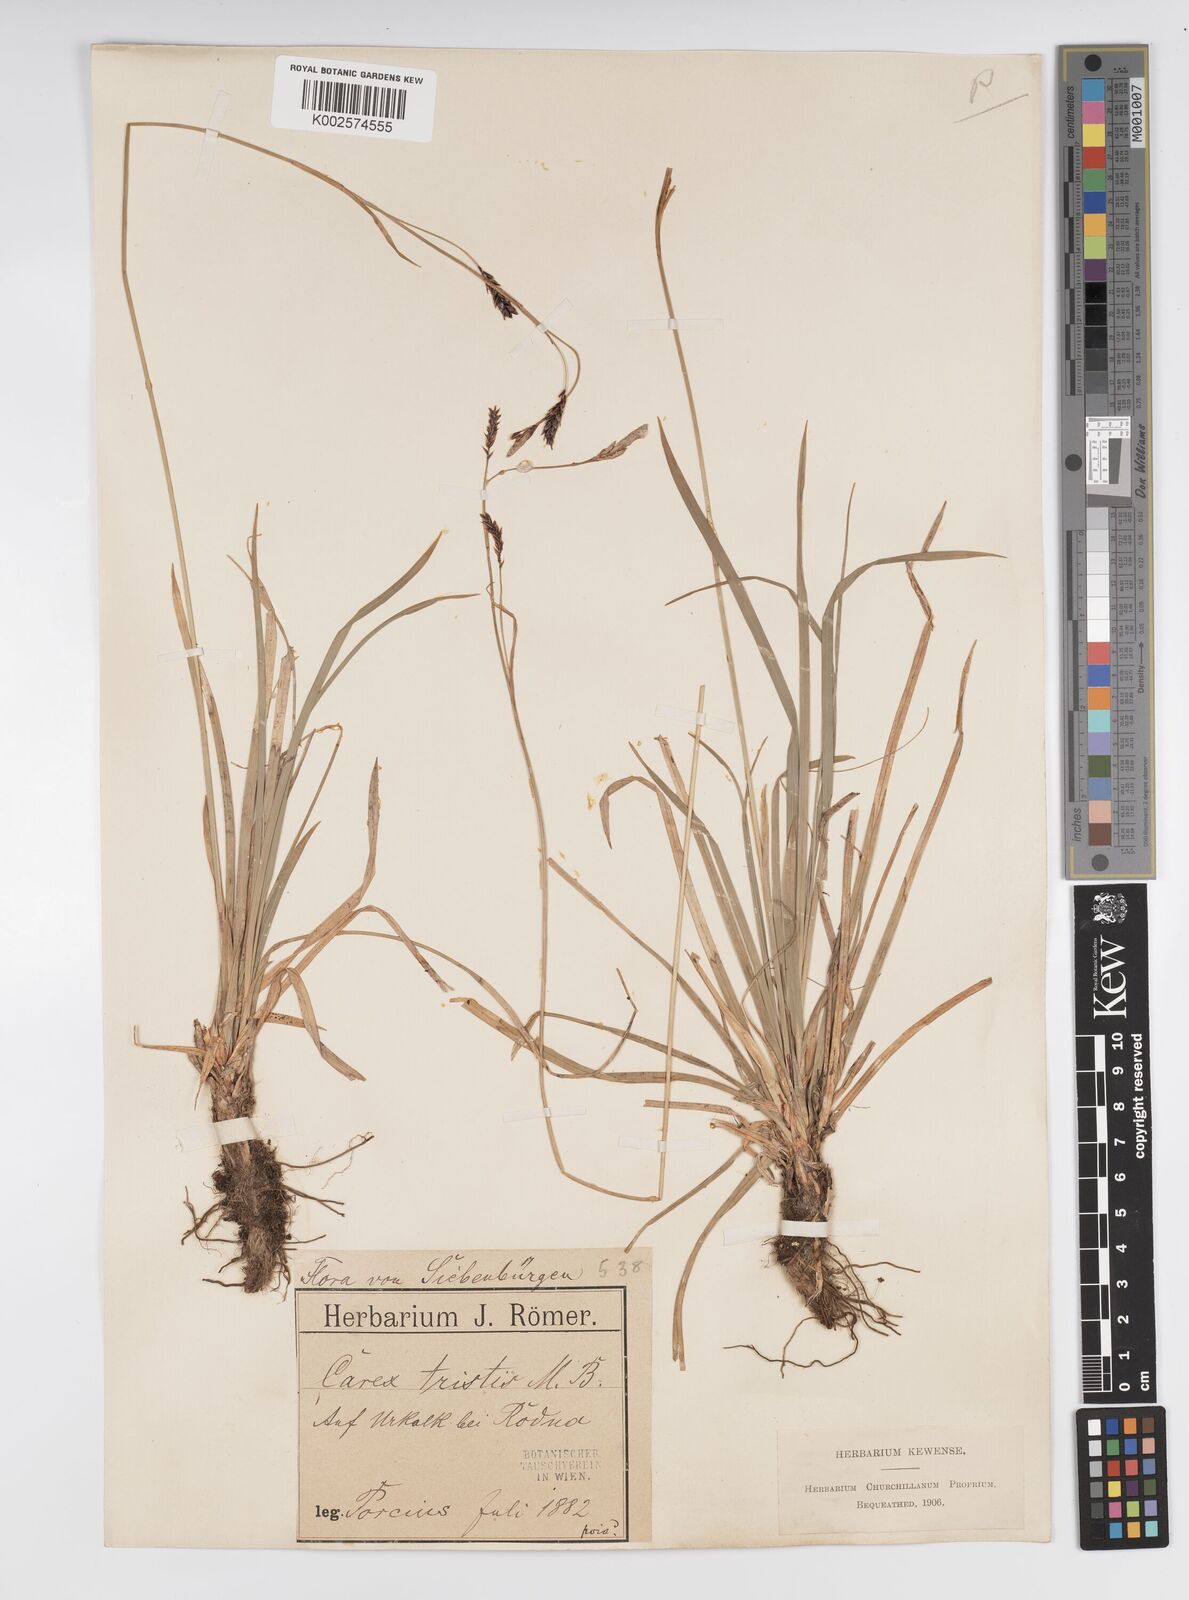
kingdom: Plantae
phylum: Tracheophyta
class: Liliopsida
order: Poales
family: Cyperaceae
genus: Carex
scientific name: Carex sempervirens
